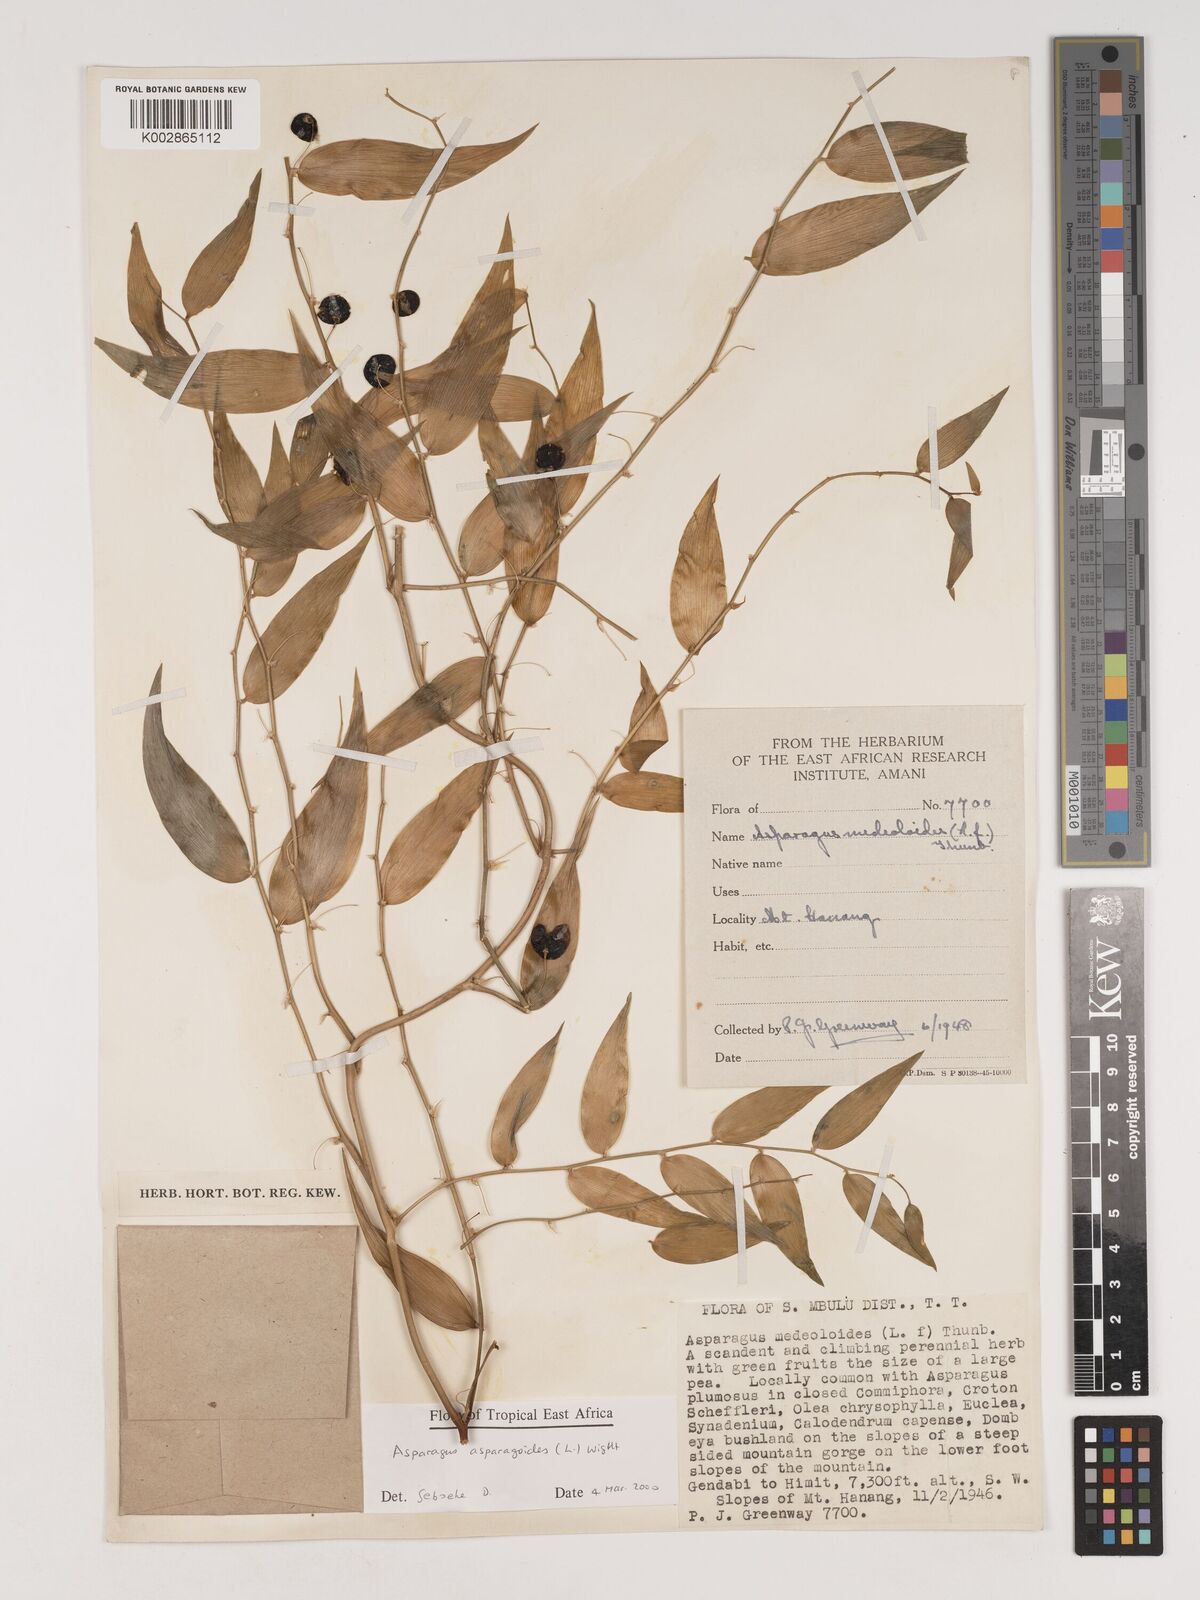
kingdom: Plantae
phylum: Tracheophyta
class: Liliopsida
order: Asparagales
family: Asparagaceae
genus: Asparagus
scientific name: Asparagus asparagoides
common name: African asparagus fern
